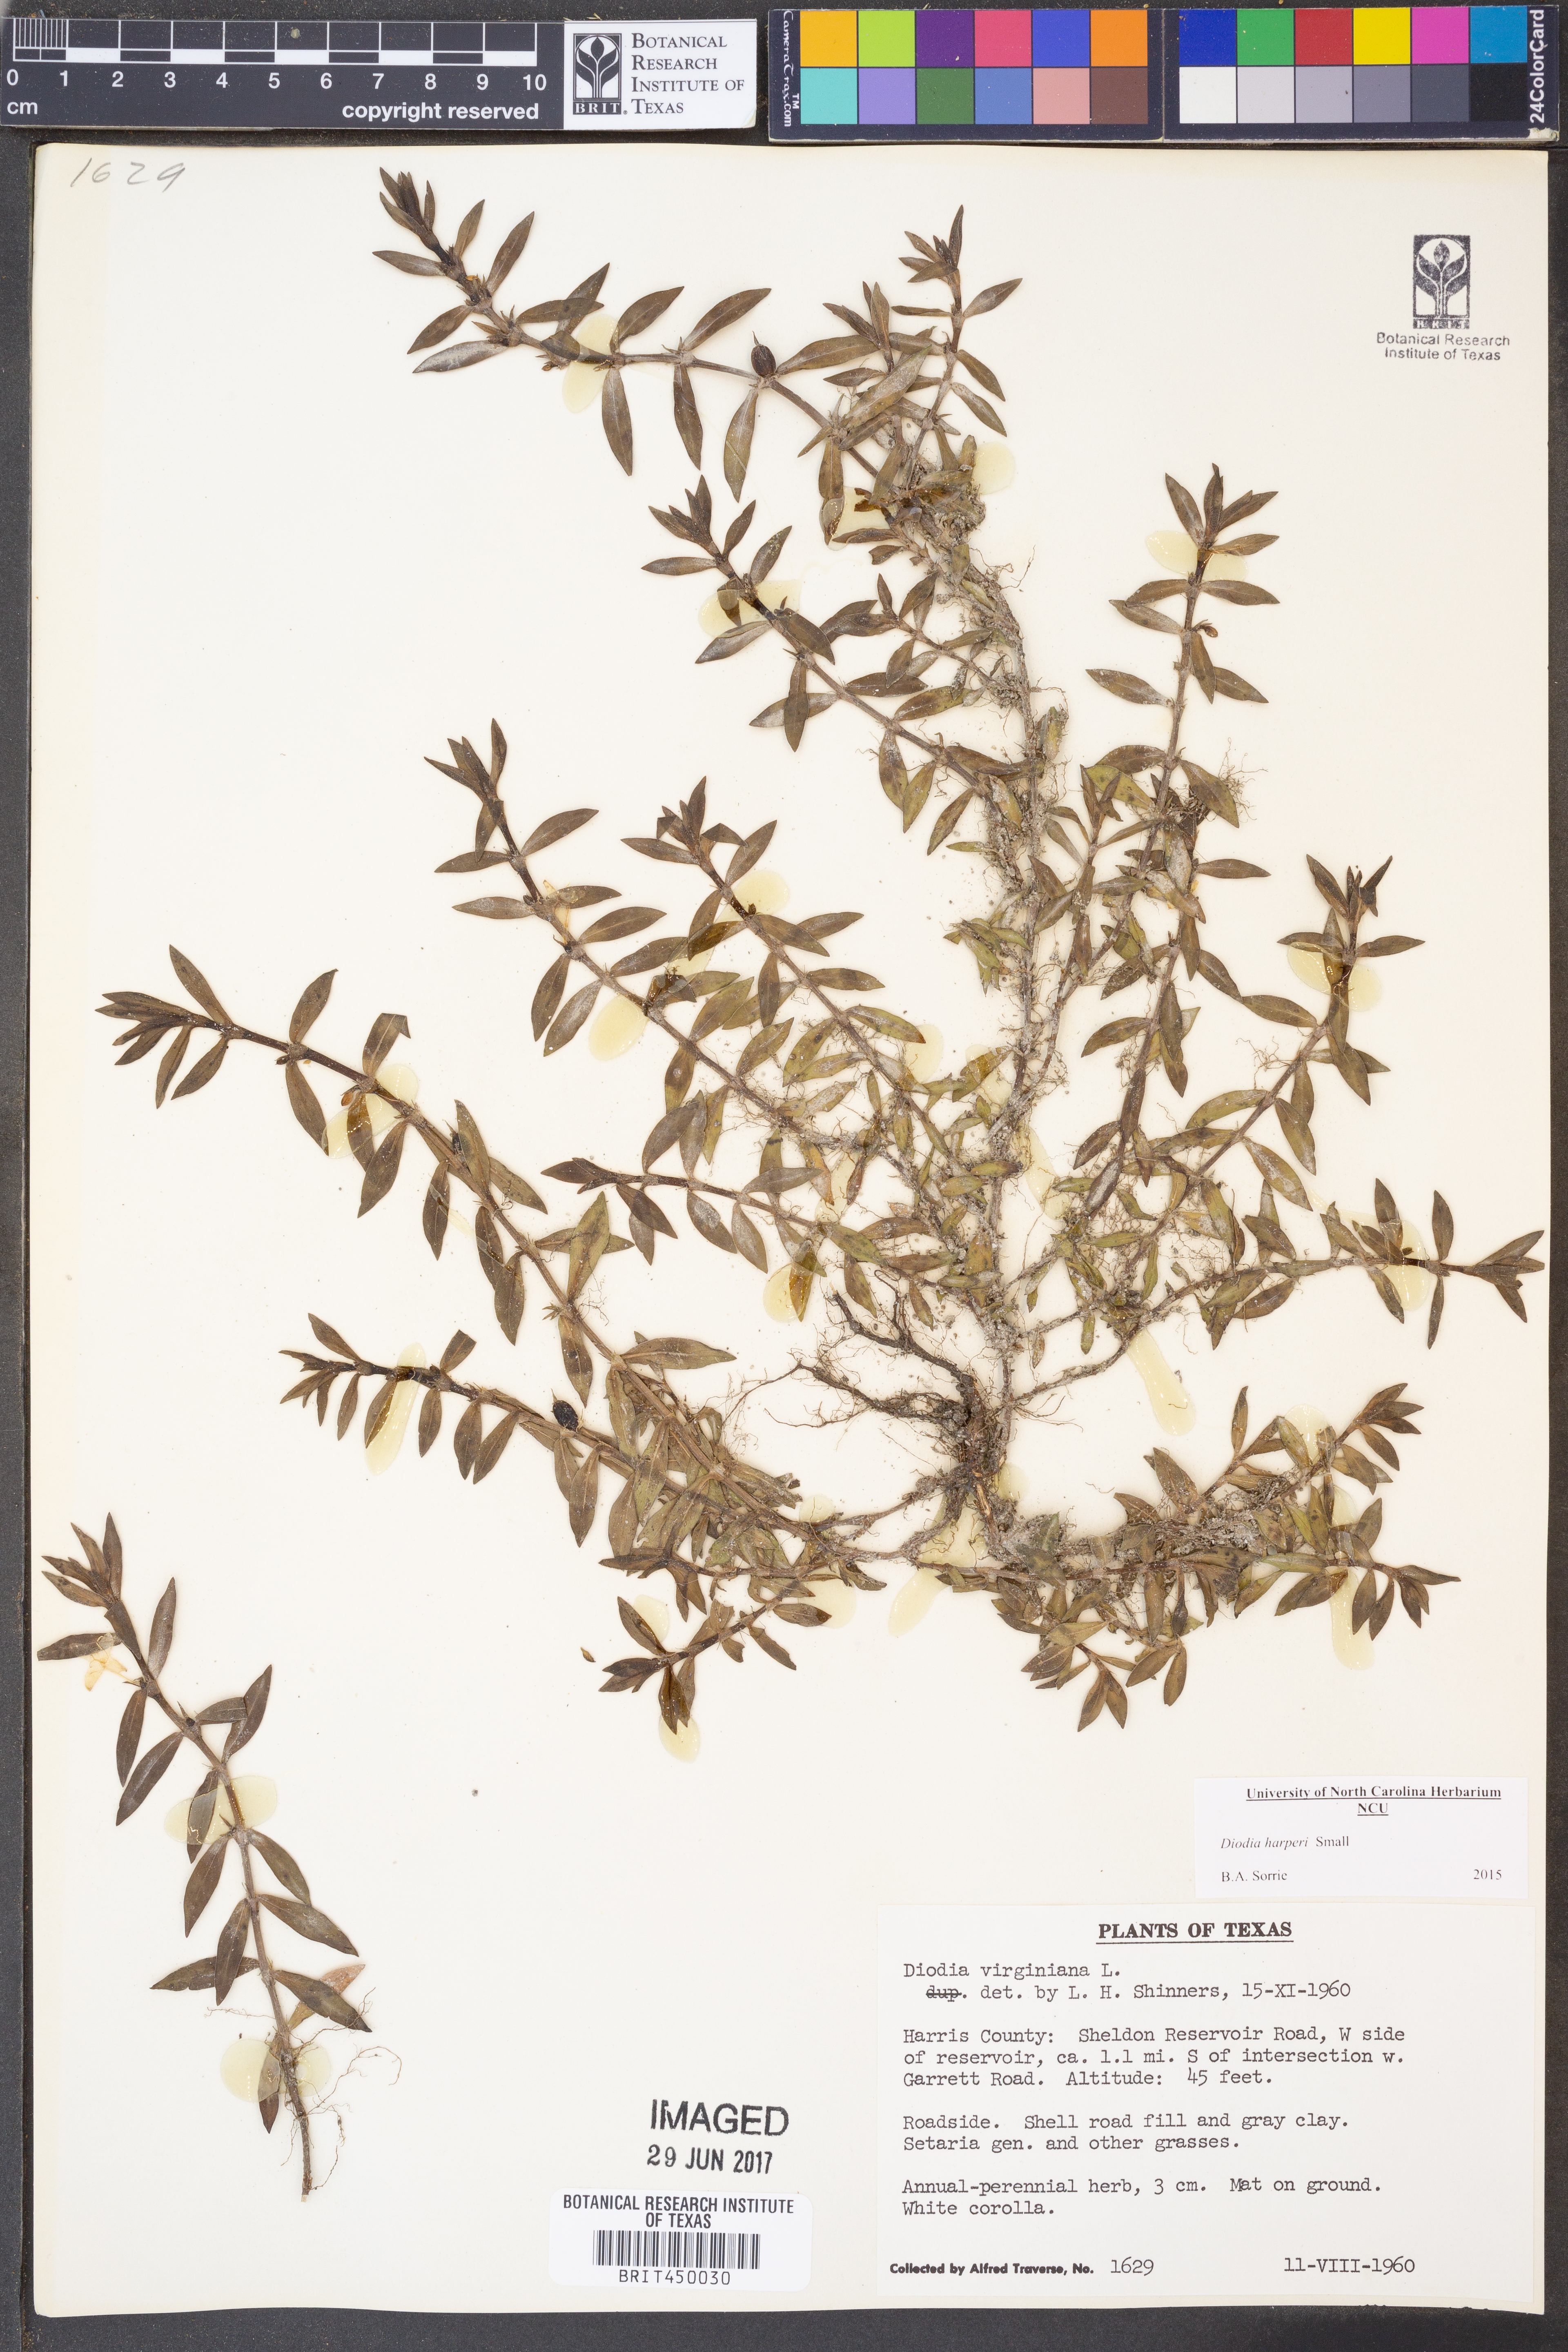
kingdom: Plantae
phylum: Tracheophyta
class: Magnoliopsida
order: Gentianales
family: Rubiaceae
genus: Diodia
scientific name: Diodia virginiana
